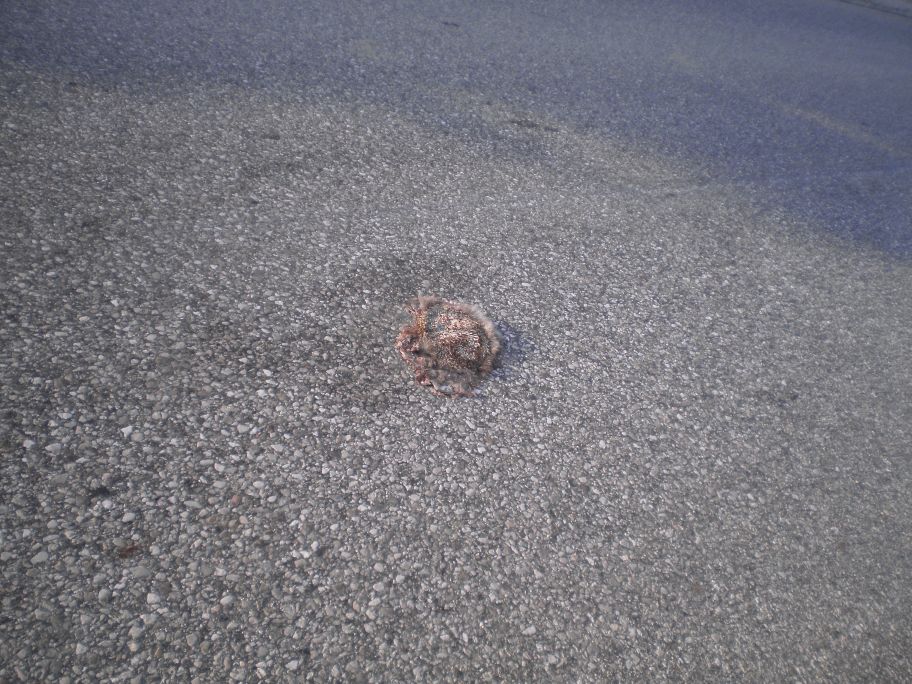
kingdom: Animalia
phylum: Chordata
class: Mammalia
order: Erinaceomorpha
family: Erinaceidae
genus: Erinaceus
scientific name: Erinaceus
